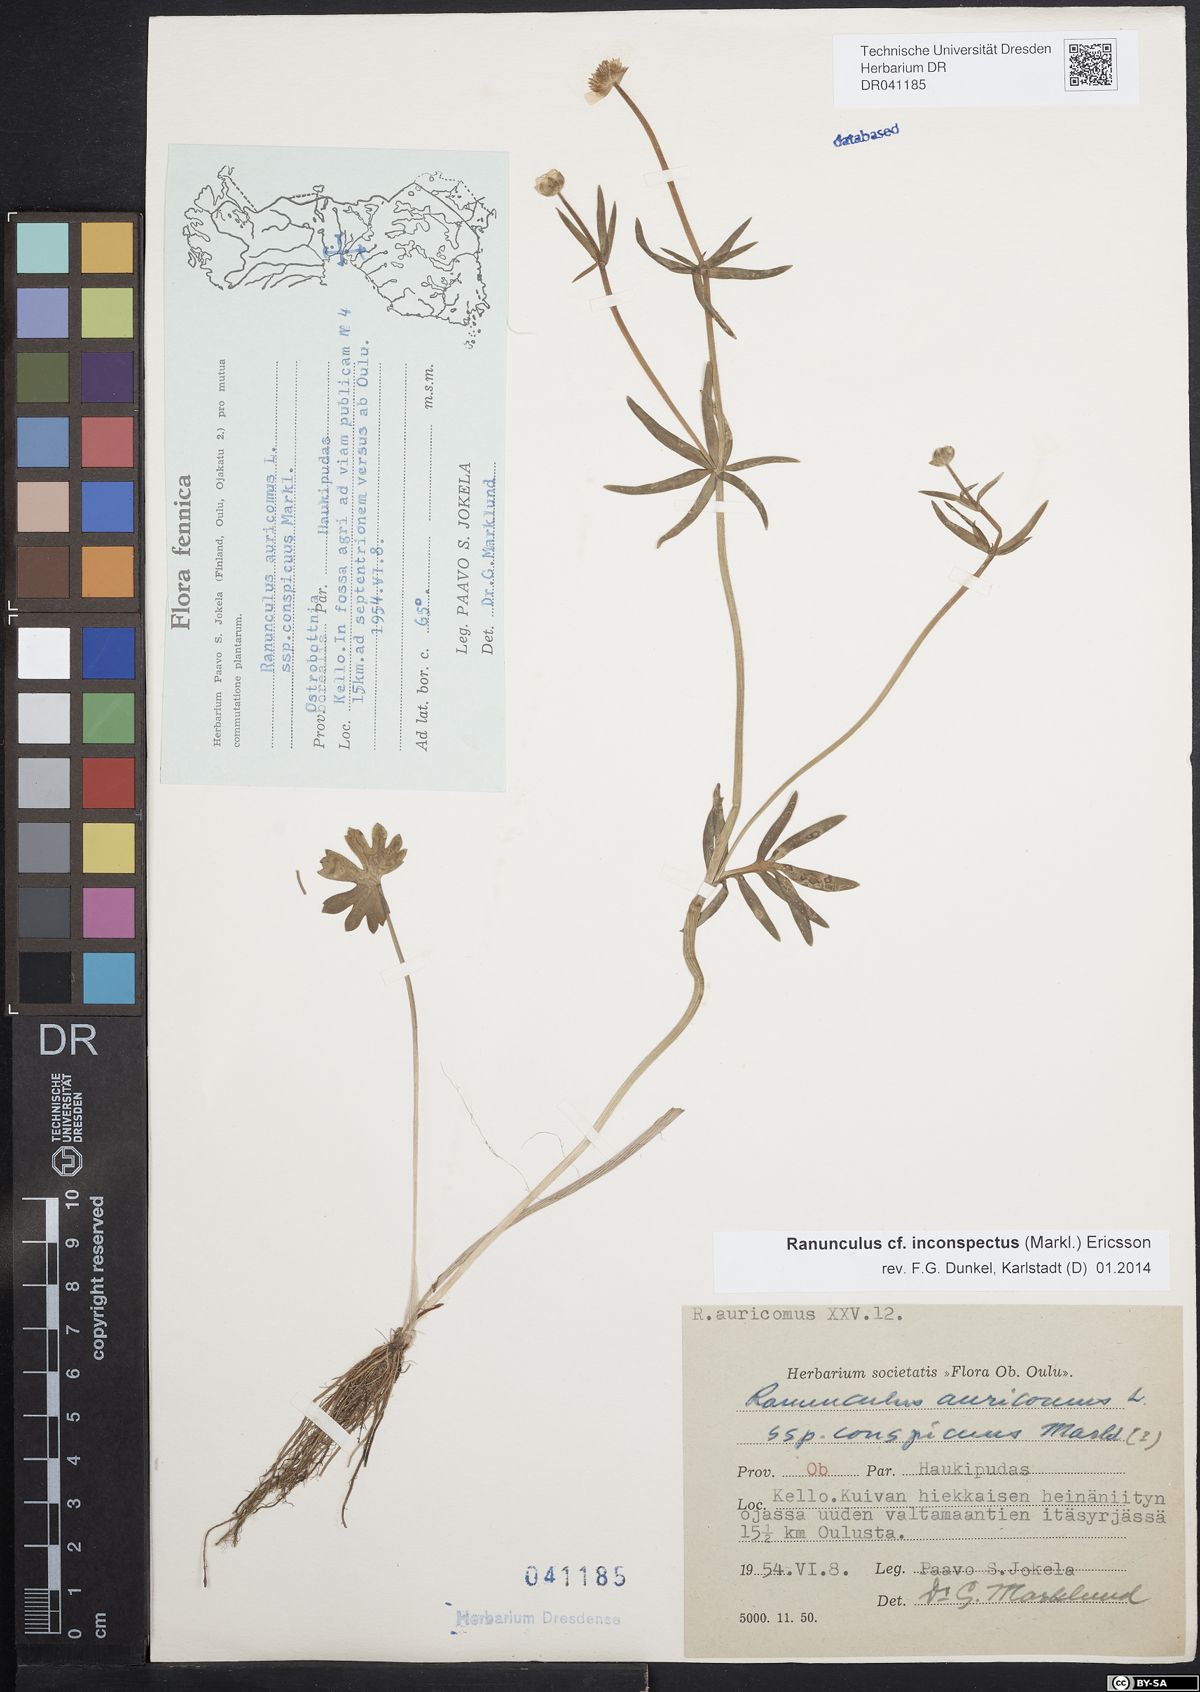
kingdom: Plantae
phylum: Tracheophyta
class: Magnoliopsida
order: Ranunculales
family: Ranunculaceae
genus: Ranunculus
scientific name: Ranunculus inconspectus
